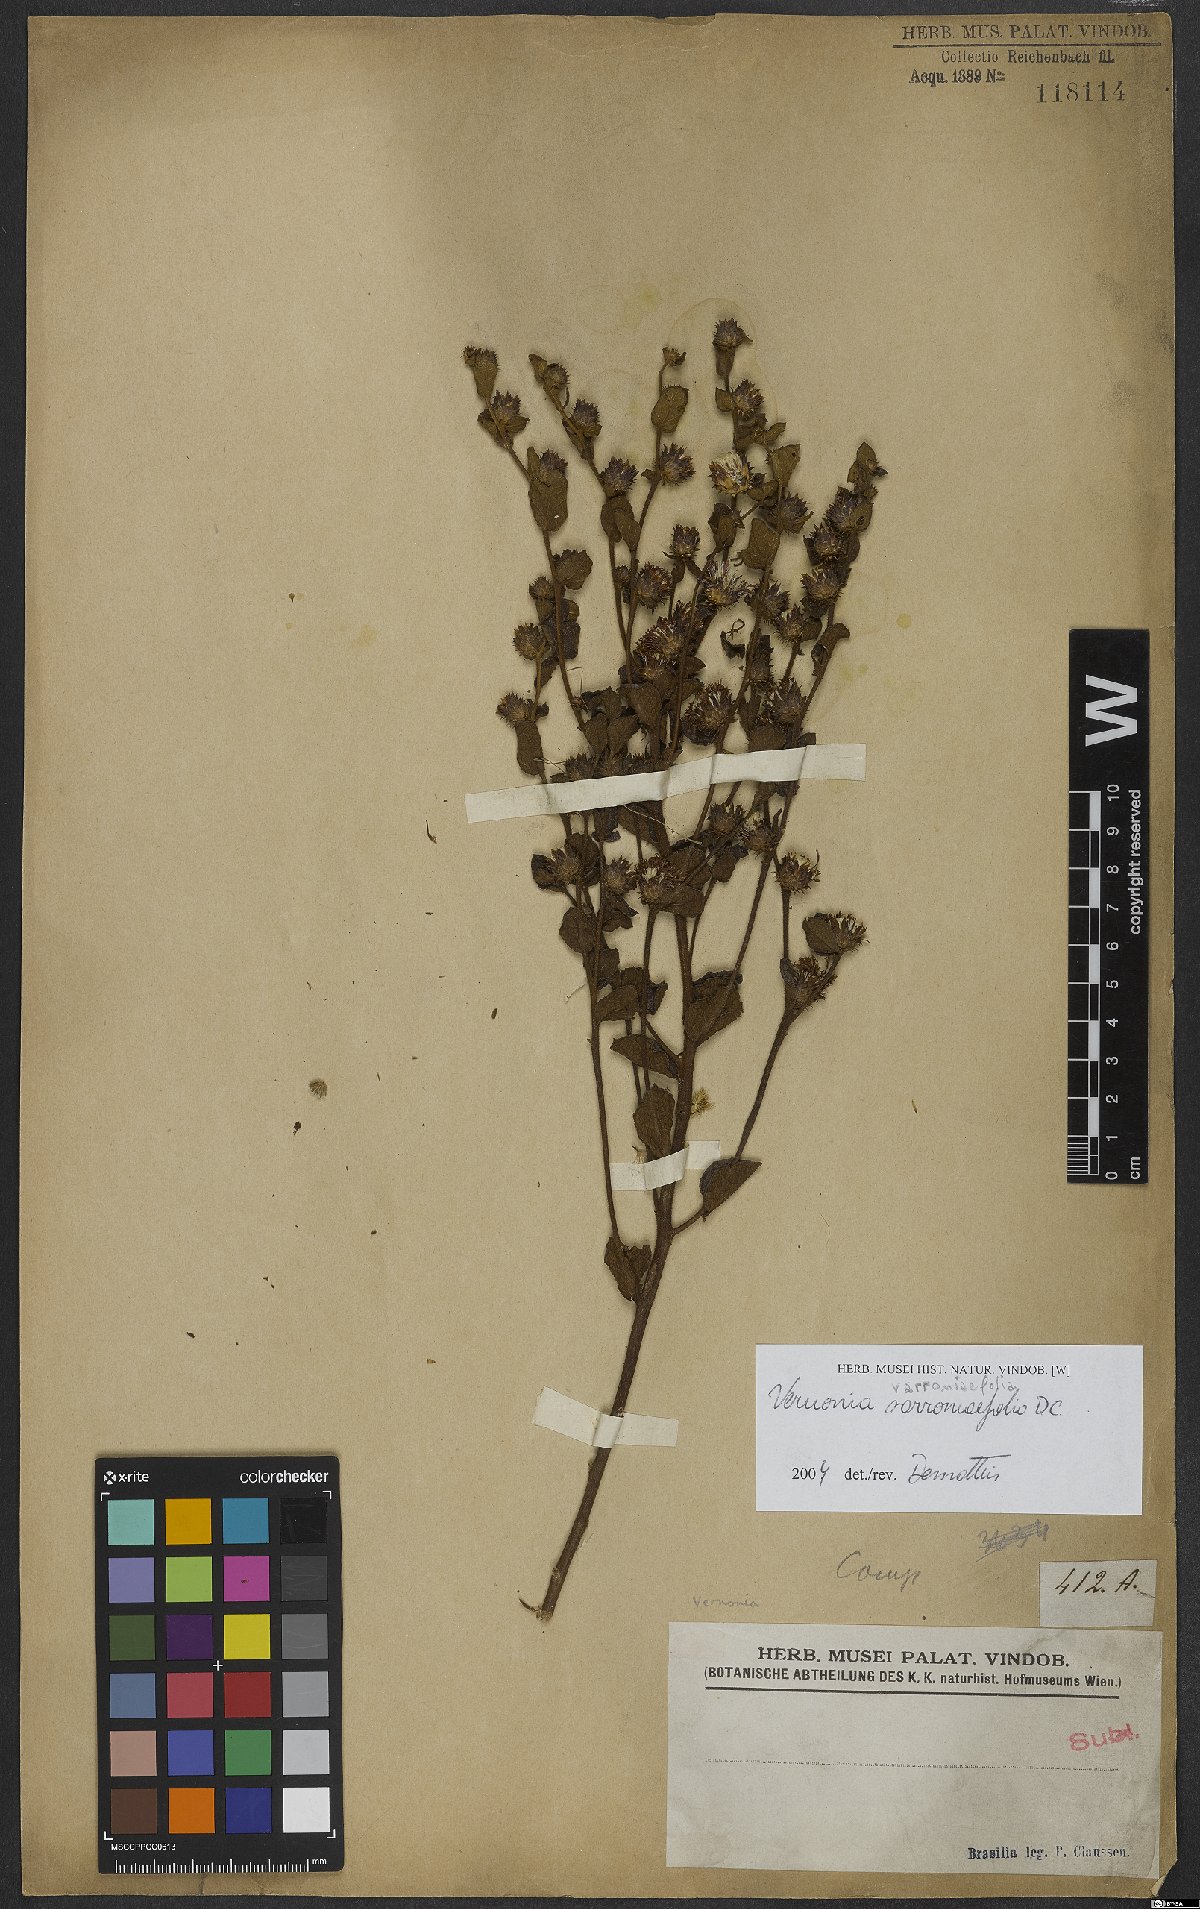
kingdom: Plantae
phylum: Tracheophyta
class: Magnoliopsida
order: Asterales
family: Asteraceae
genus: Lessingianthus
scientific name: Lessingianthus varroniifolius
